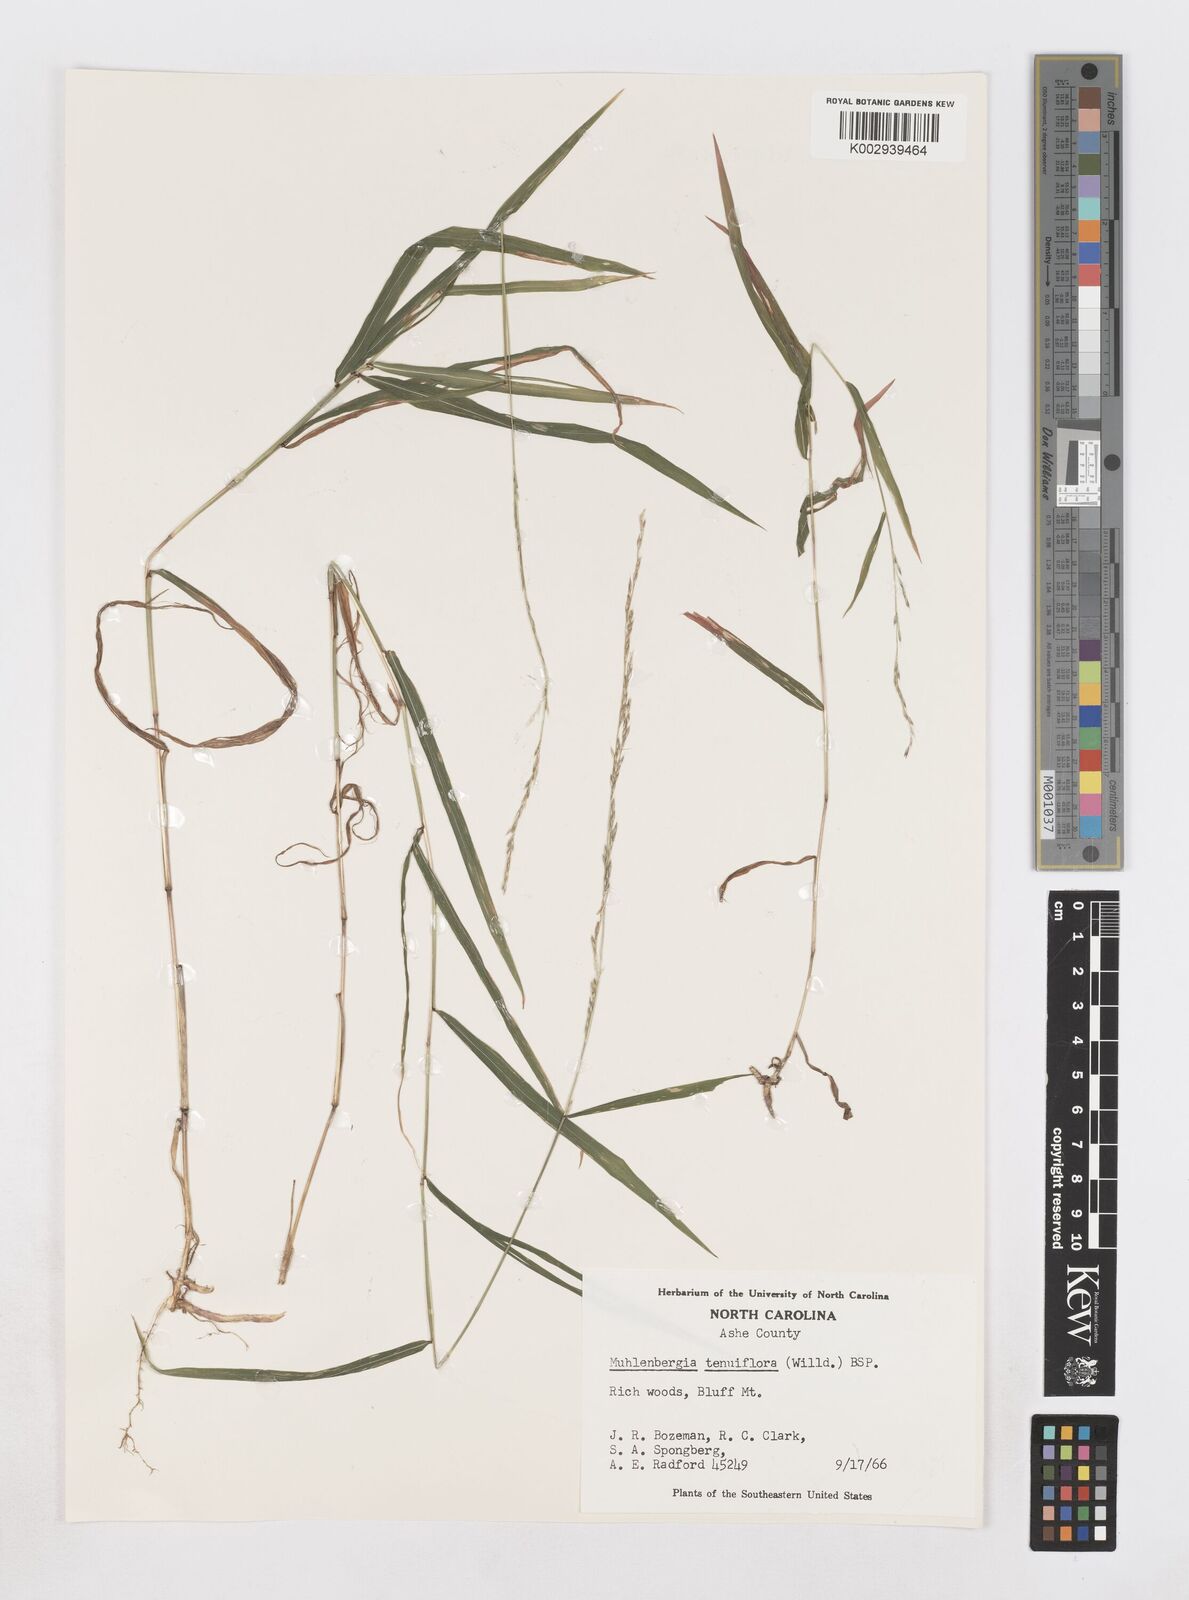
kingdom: Plantae
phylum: Tracheophyta
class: Liliopsida
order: Poales
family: Poaceae
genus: Muhlenbergia
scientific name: Muhlenbergia tenuiflora
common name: Slender muhly
